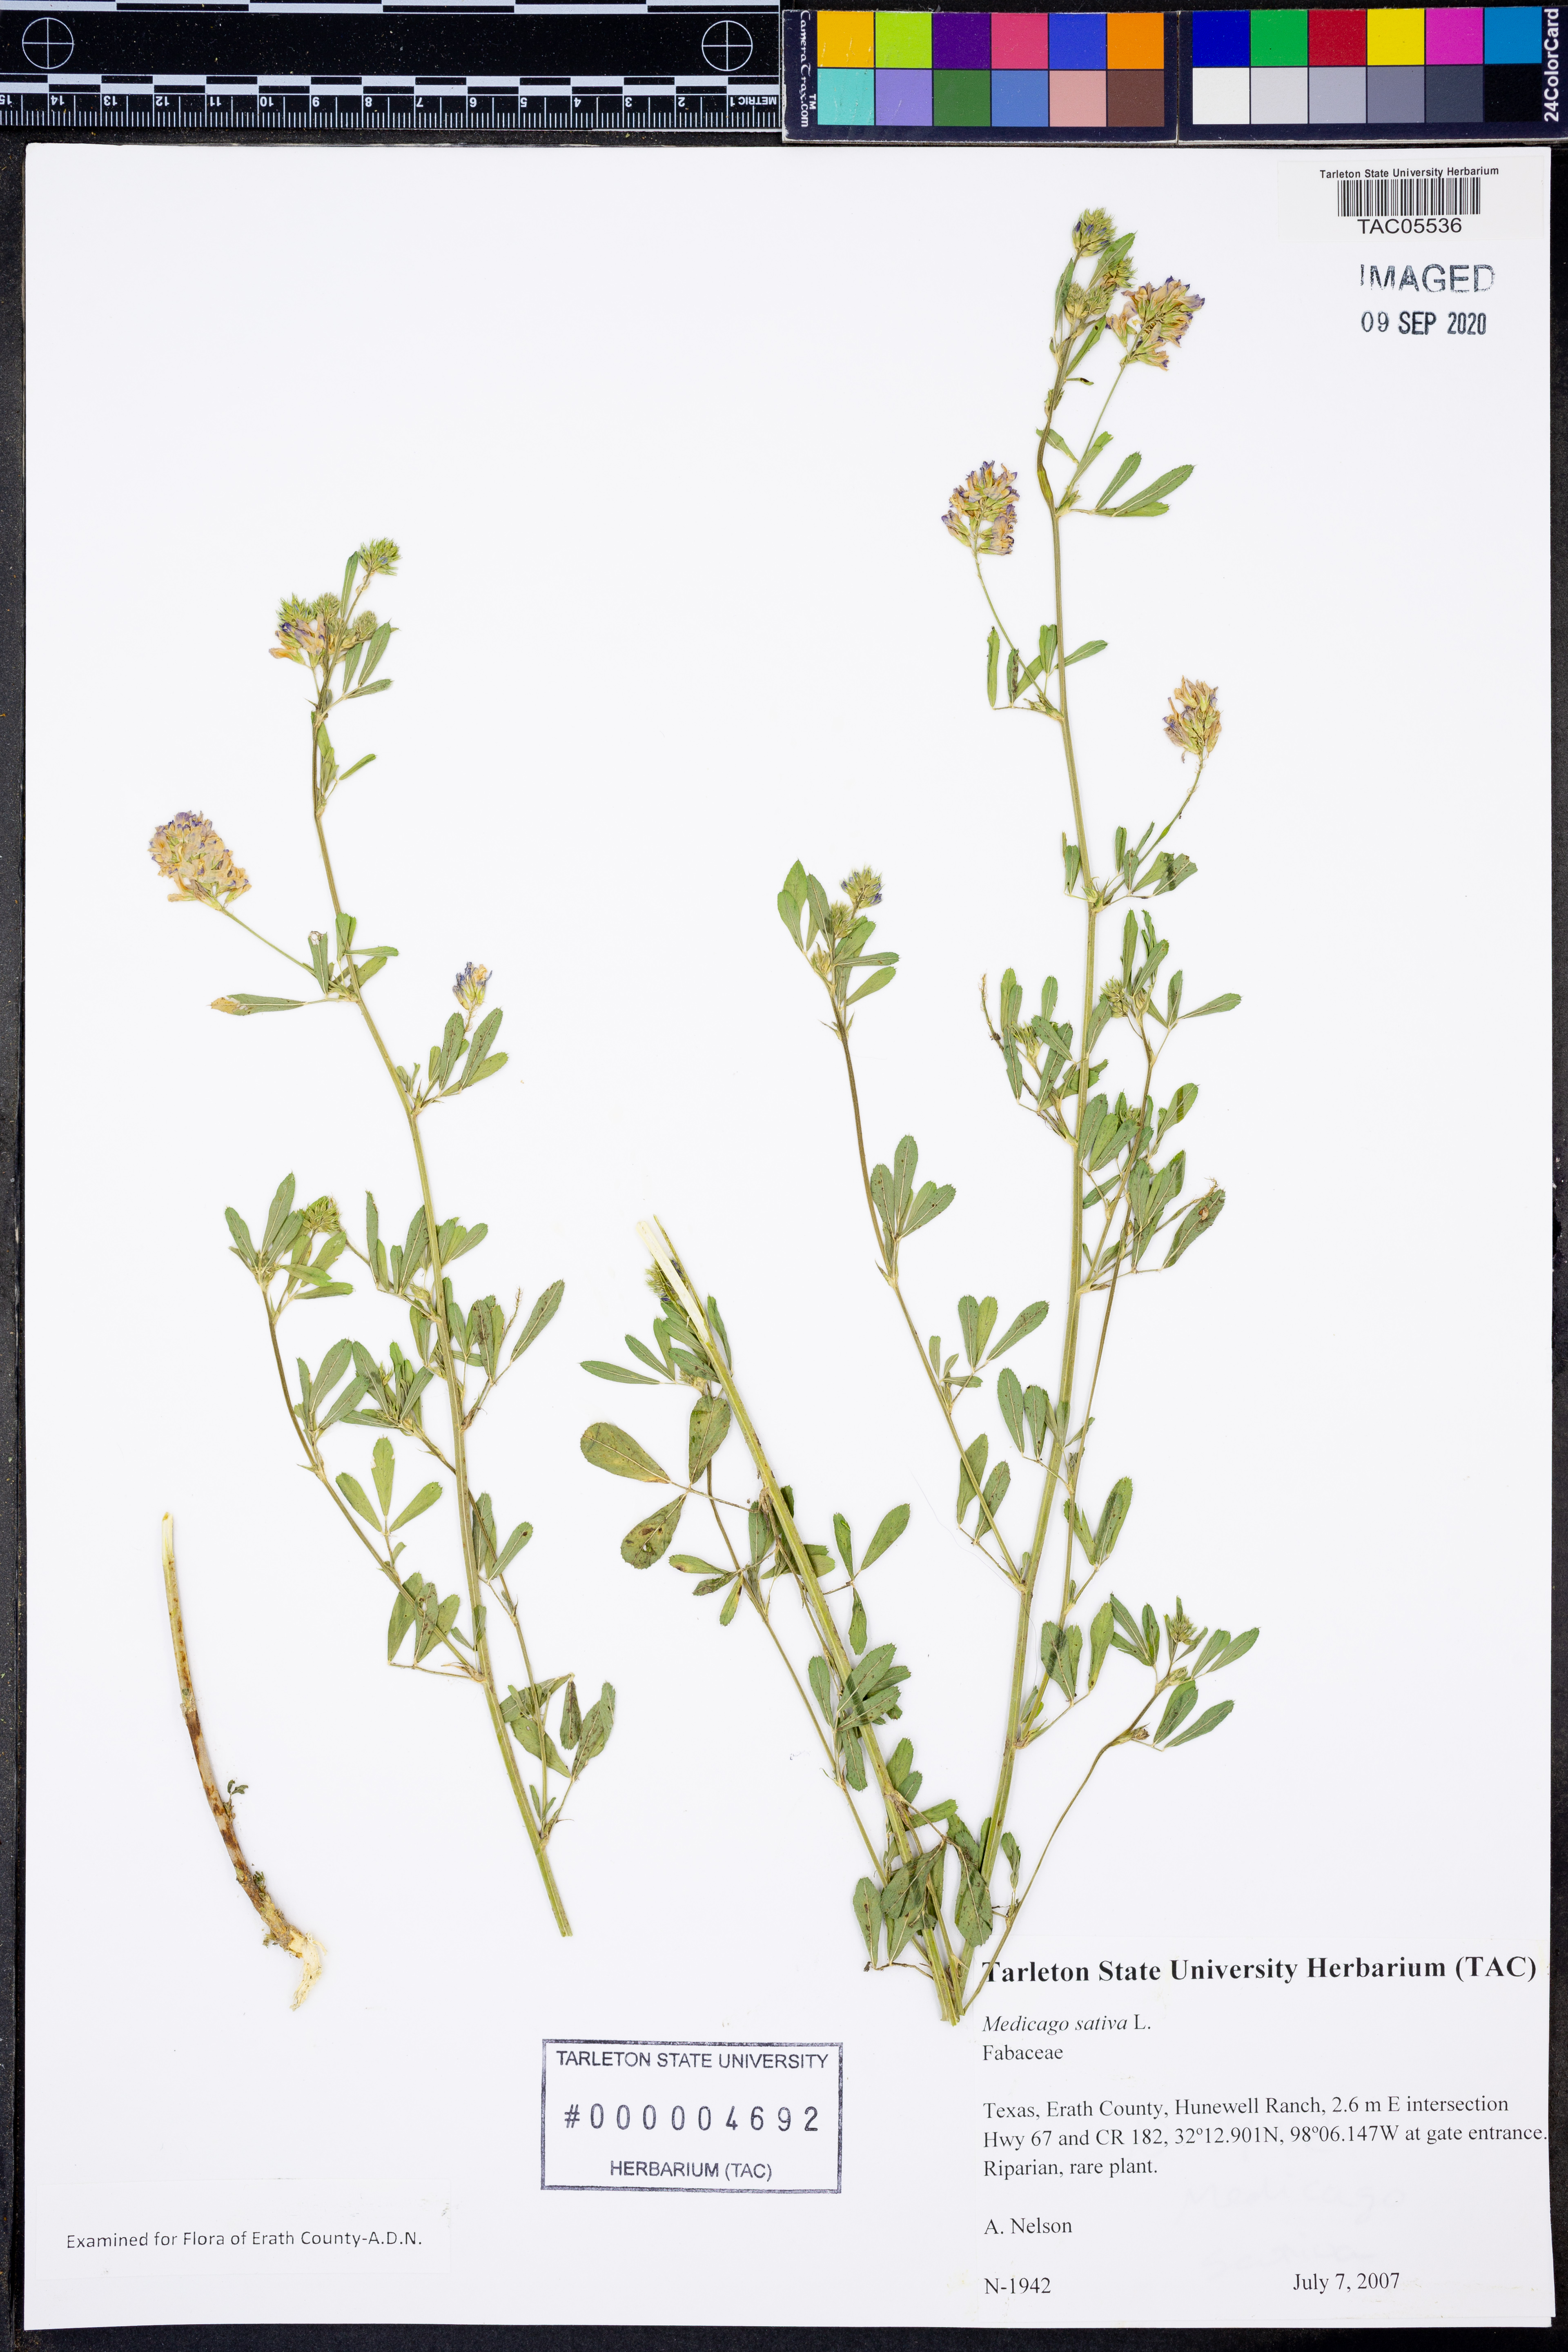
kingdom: Plantae
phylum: Tracheophyta
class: Magnoliopsida
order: Fabales
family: Fabaceae
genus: Medicago
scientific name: Medicago sativa
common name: Alfalfa
